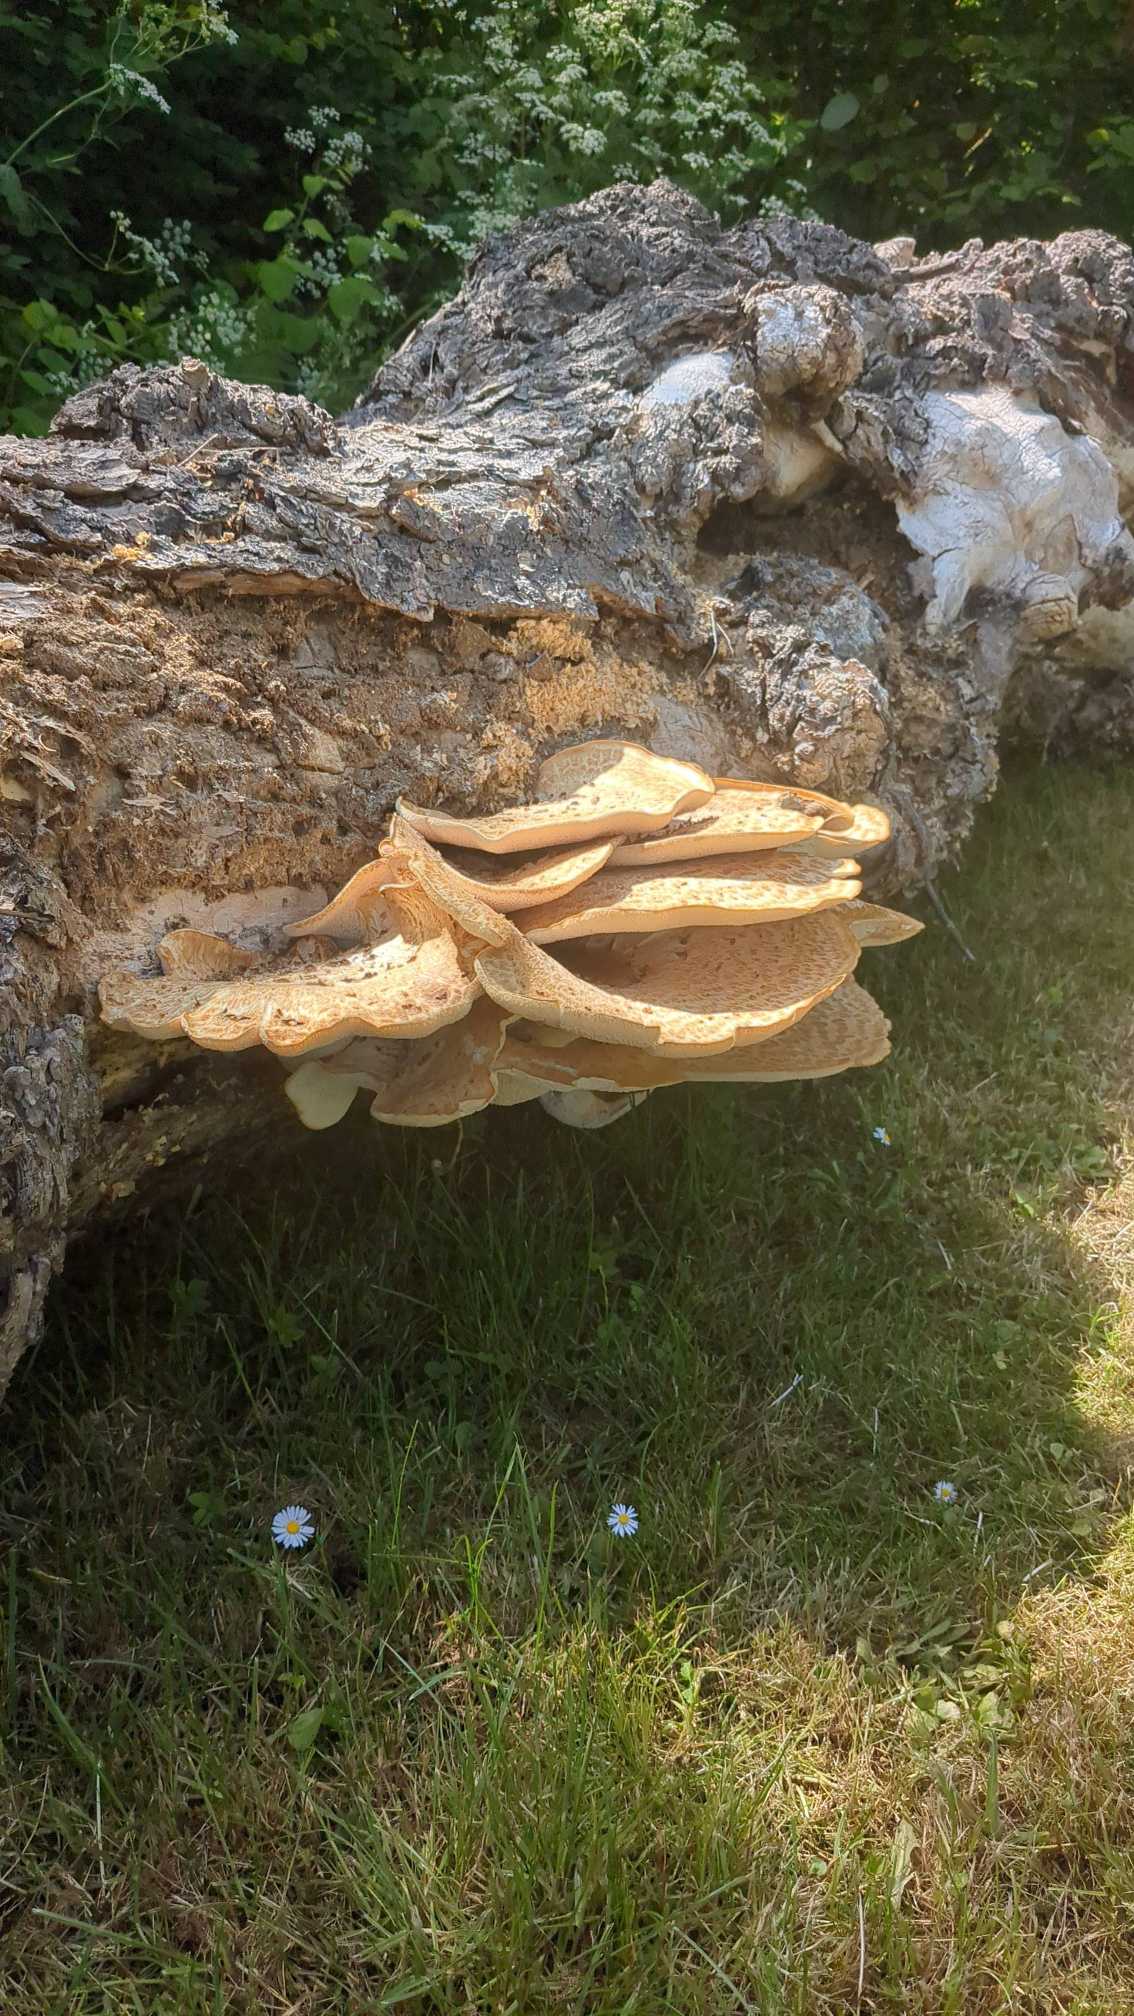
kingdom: Fungi
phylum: Basidiomycota
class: Agaricomycetes
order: Polyporales
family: Polyporaceae
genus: Cerioporus
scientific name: Cerioporus squamosus
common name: Skællet stilkporesvamp
